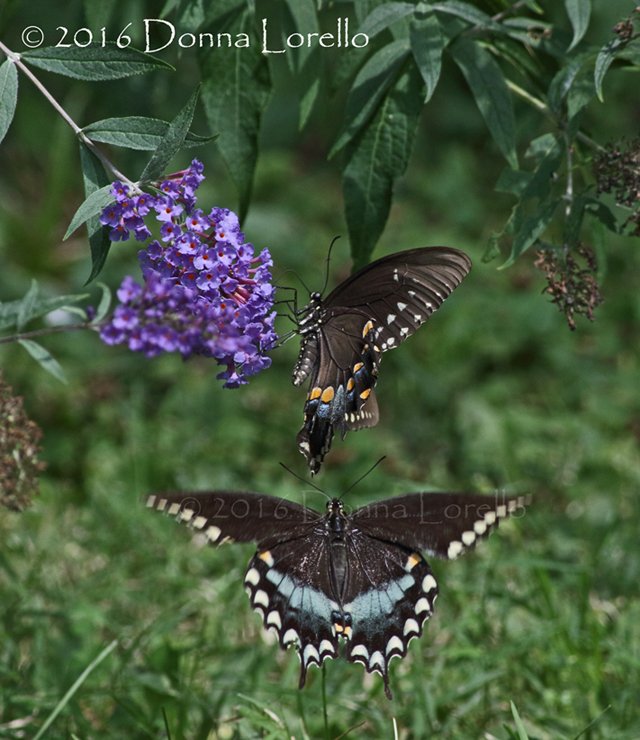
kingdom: Animalia
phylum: Arthropoda
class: Insecta
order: Lepidoptera
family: Papilionidae
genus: Pterourus
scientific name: Pterourus troilus
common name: Spicebush Swallowtail
